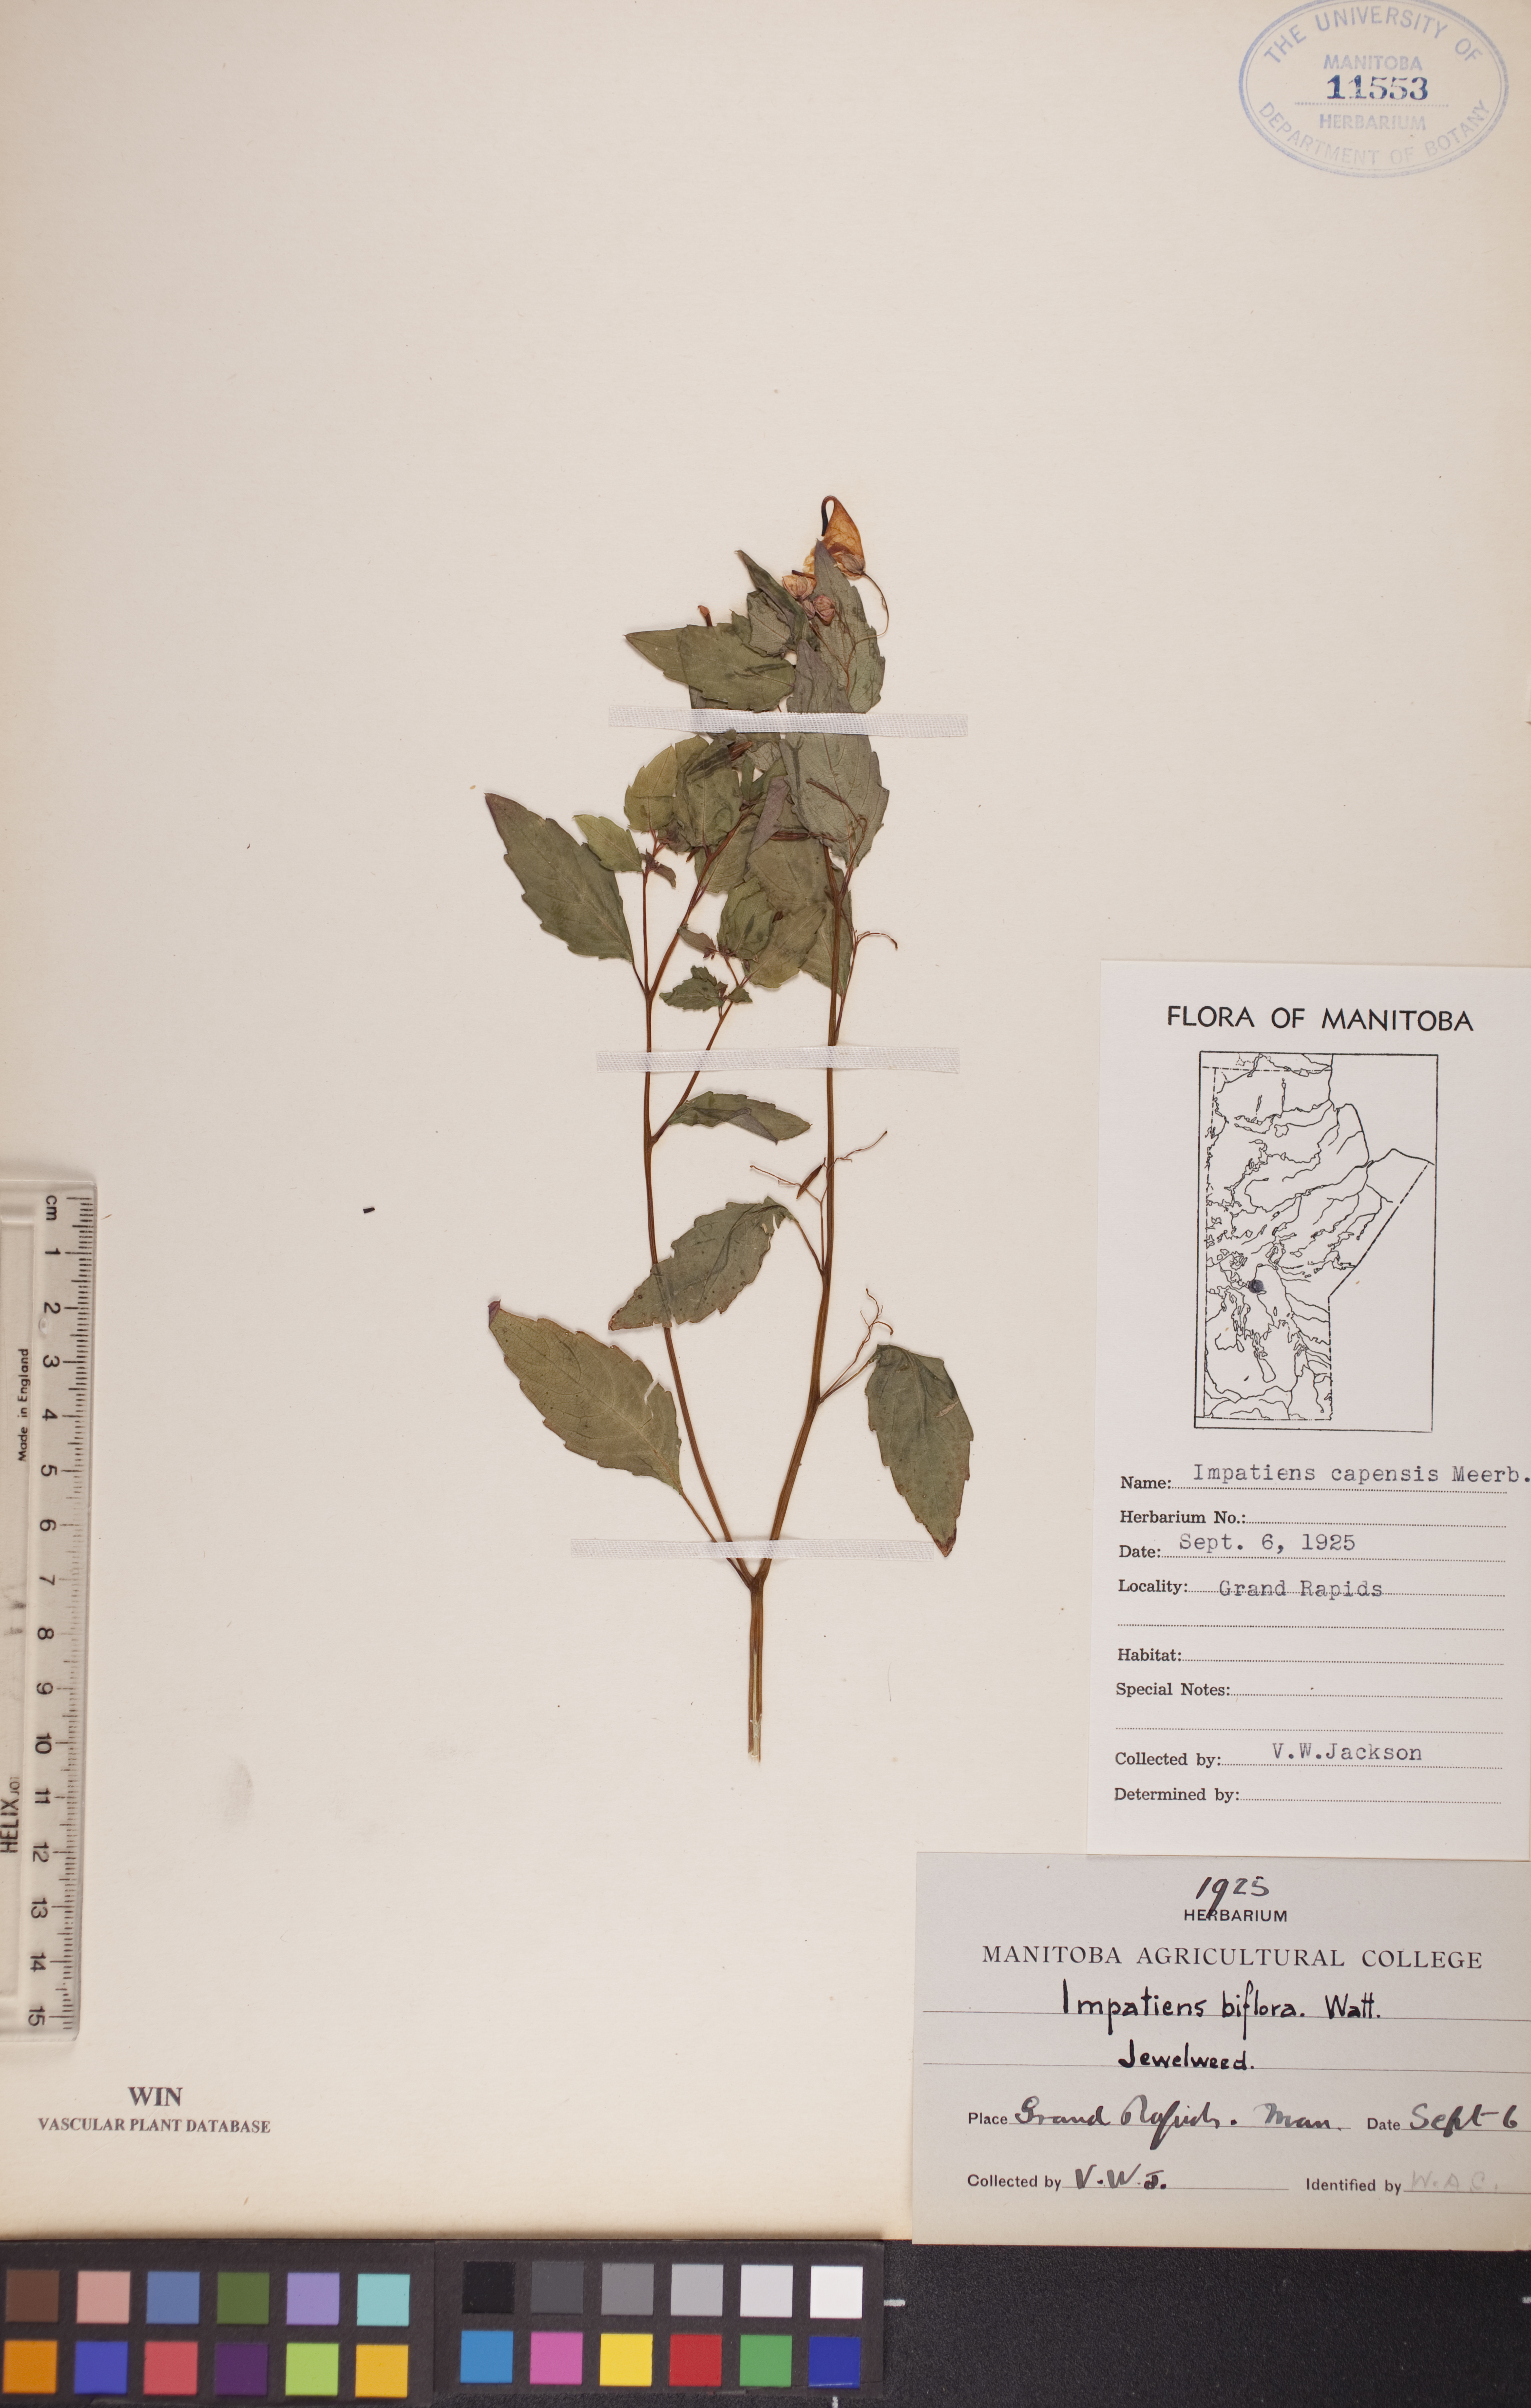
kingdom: Plantae
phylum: Tracheophyta
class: Magnoliopsida
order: Ericales
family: Balsaminaceae
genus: Impatiens
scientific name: Impatiens capensis
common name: Orange balsam
